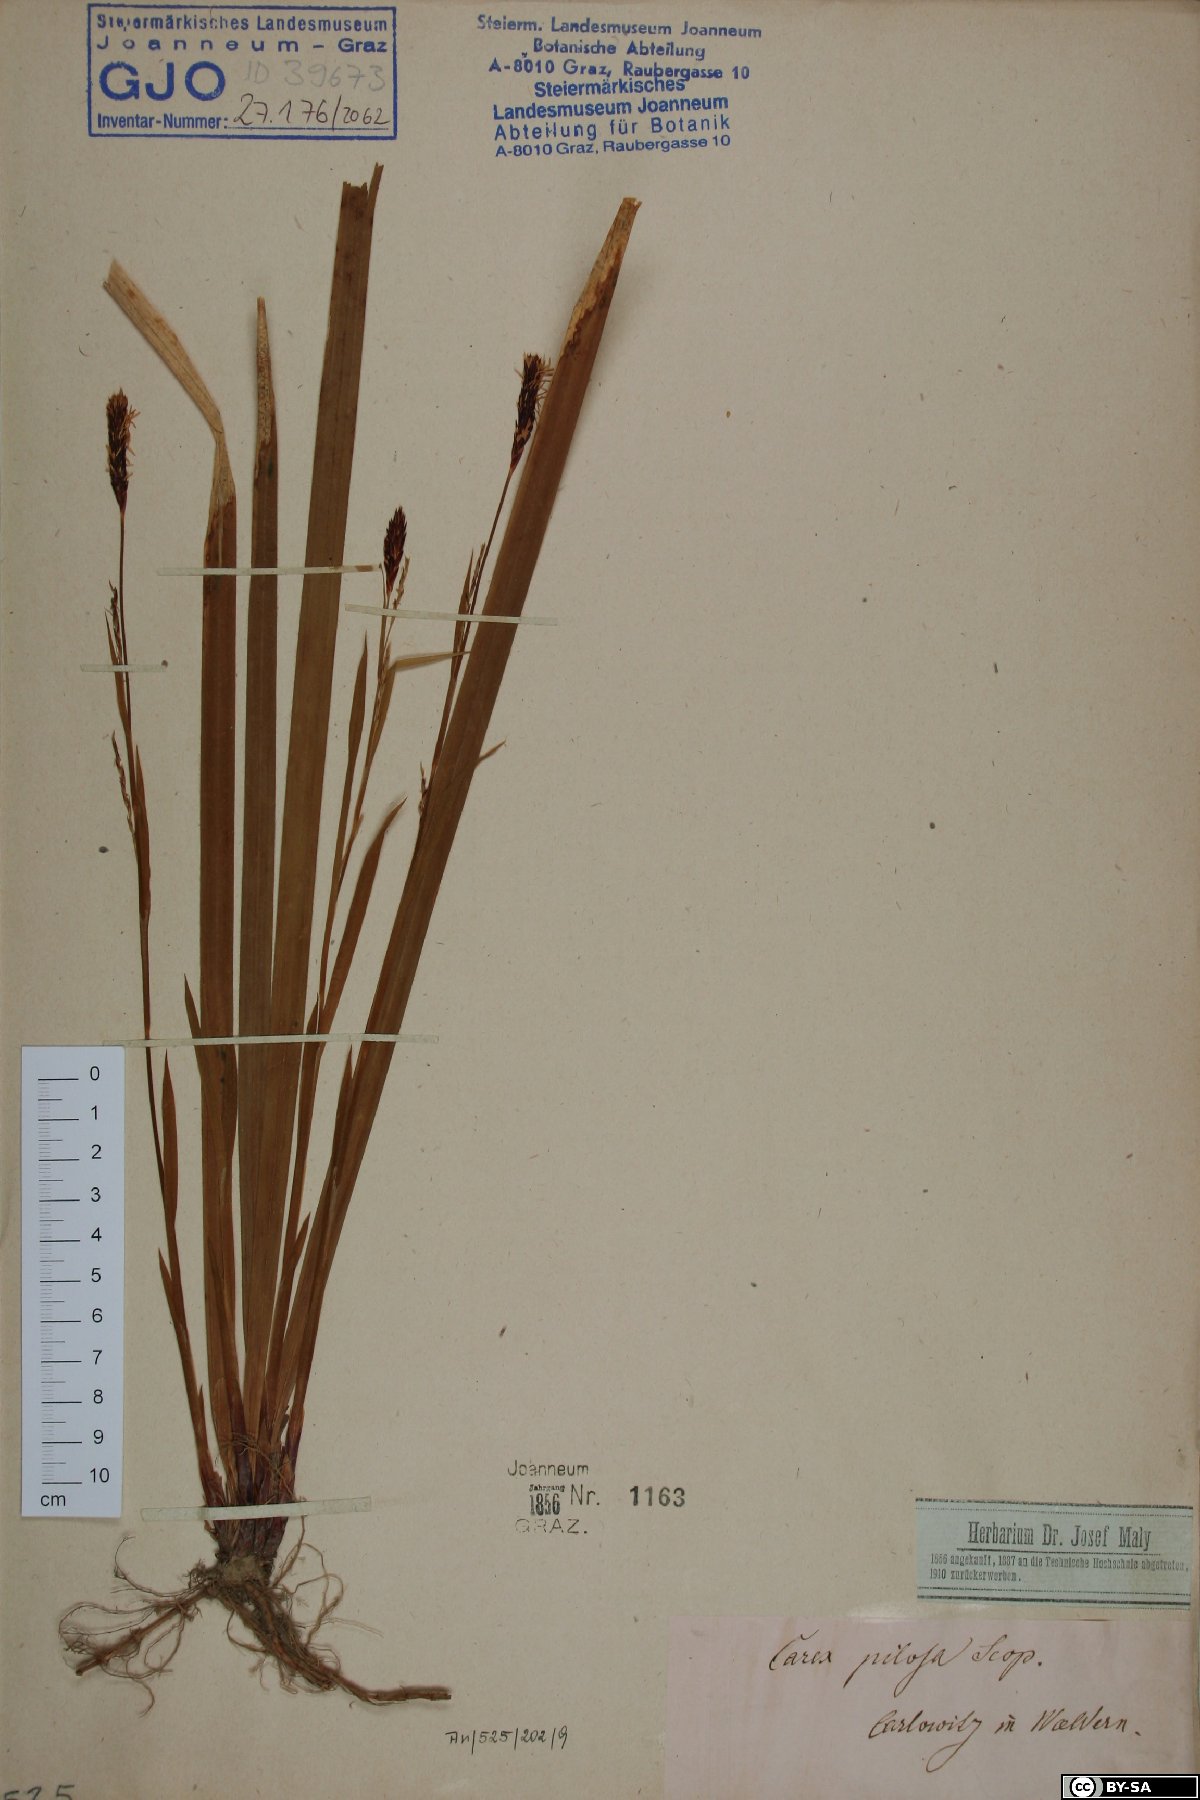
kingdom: Plantae
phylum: Tracheophyta
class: Liliopsida
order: Poales
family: Cyperaceae
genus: Carex
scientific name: Carex pilosa
